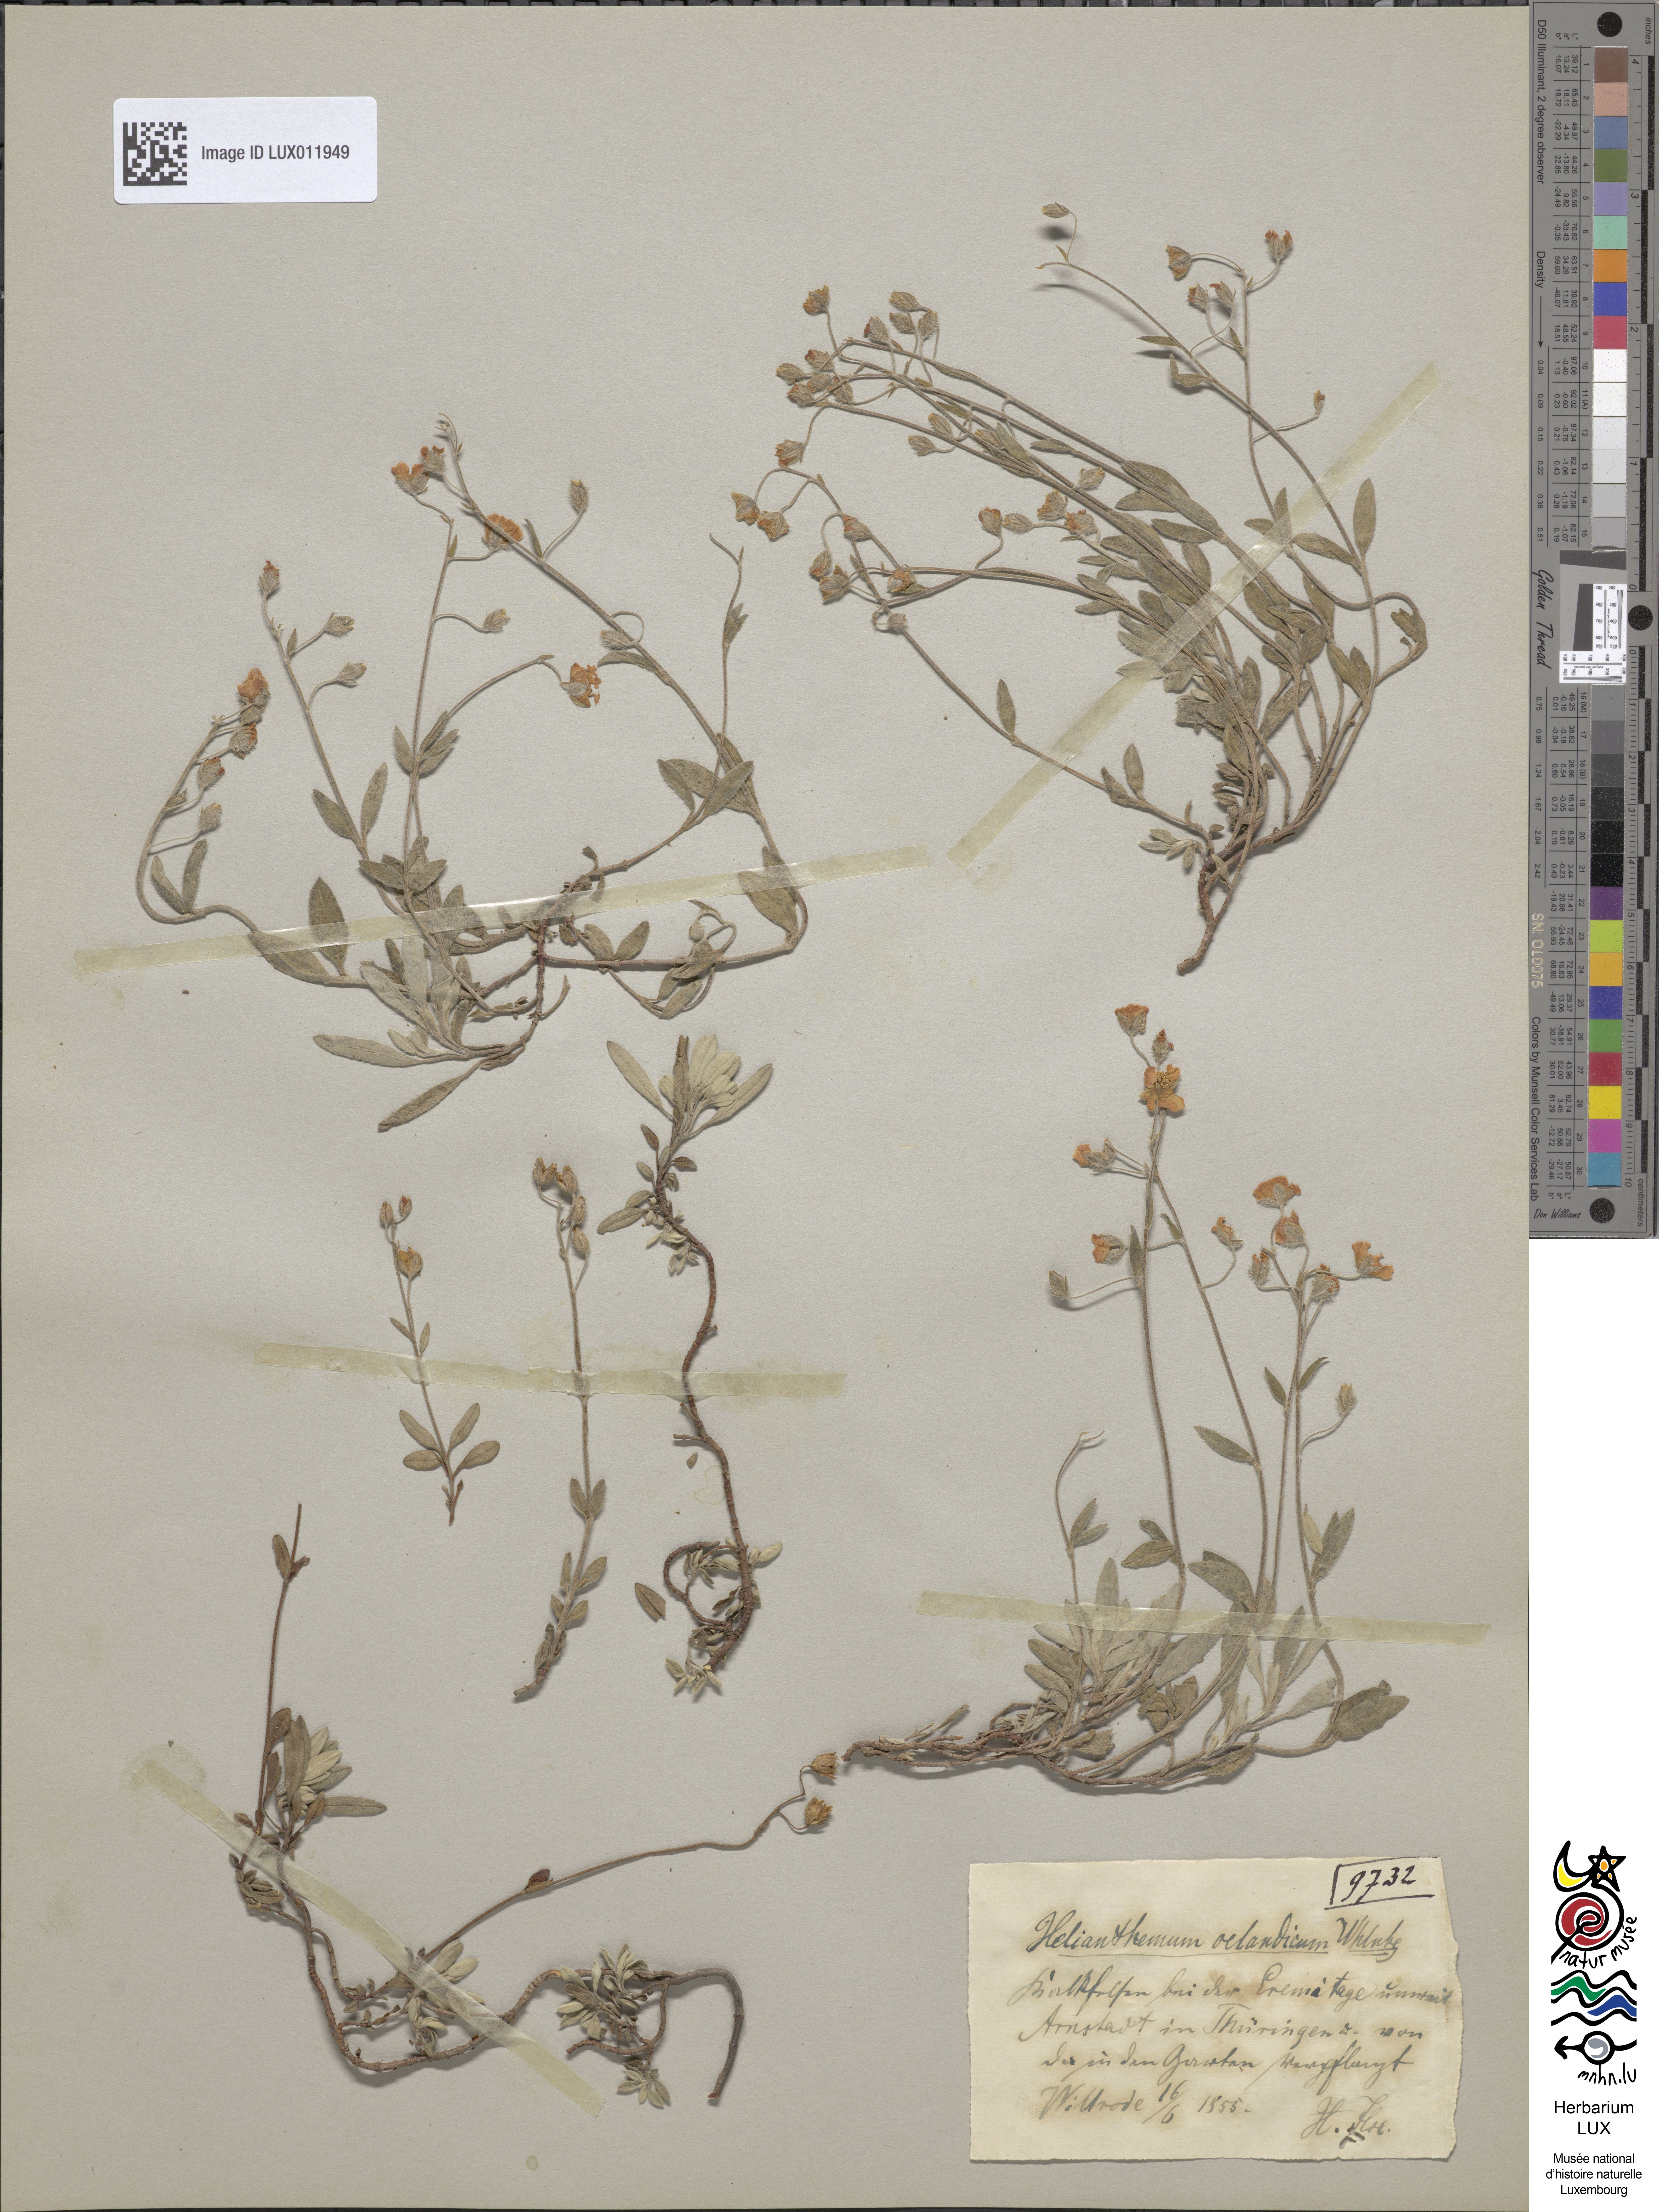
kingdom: Plantae
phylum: Tracheophyta
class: Magnoliopsida
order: Malvales
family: Cistaceae
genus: Helianthemum
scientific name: Helianthemum oelandicum
